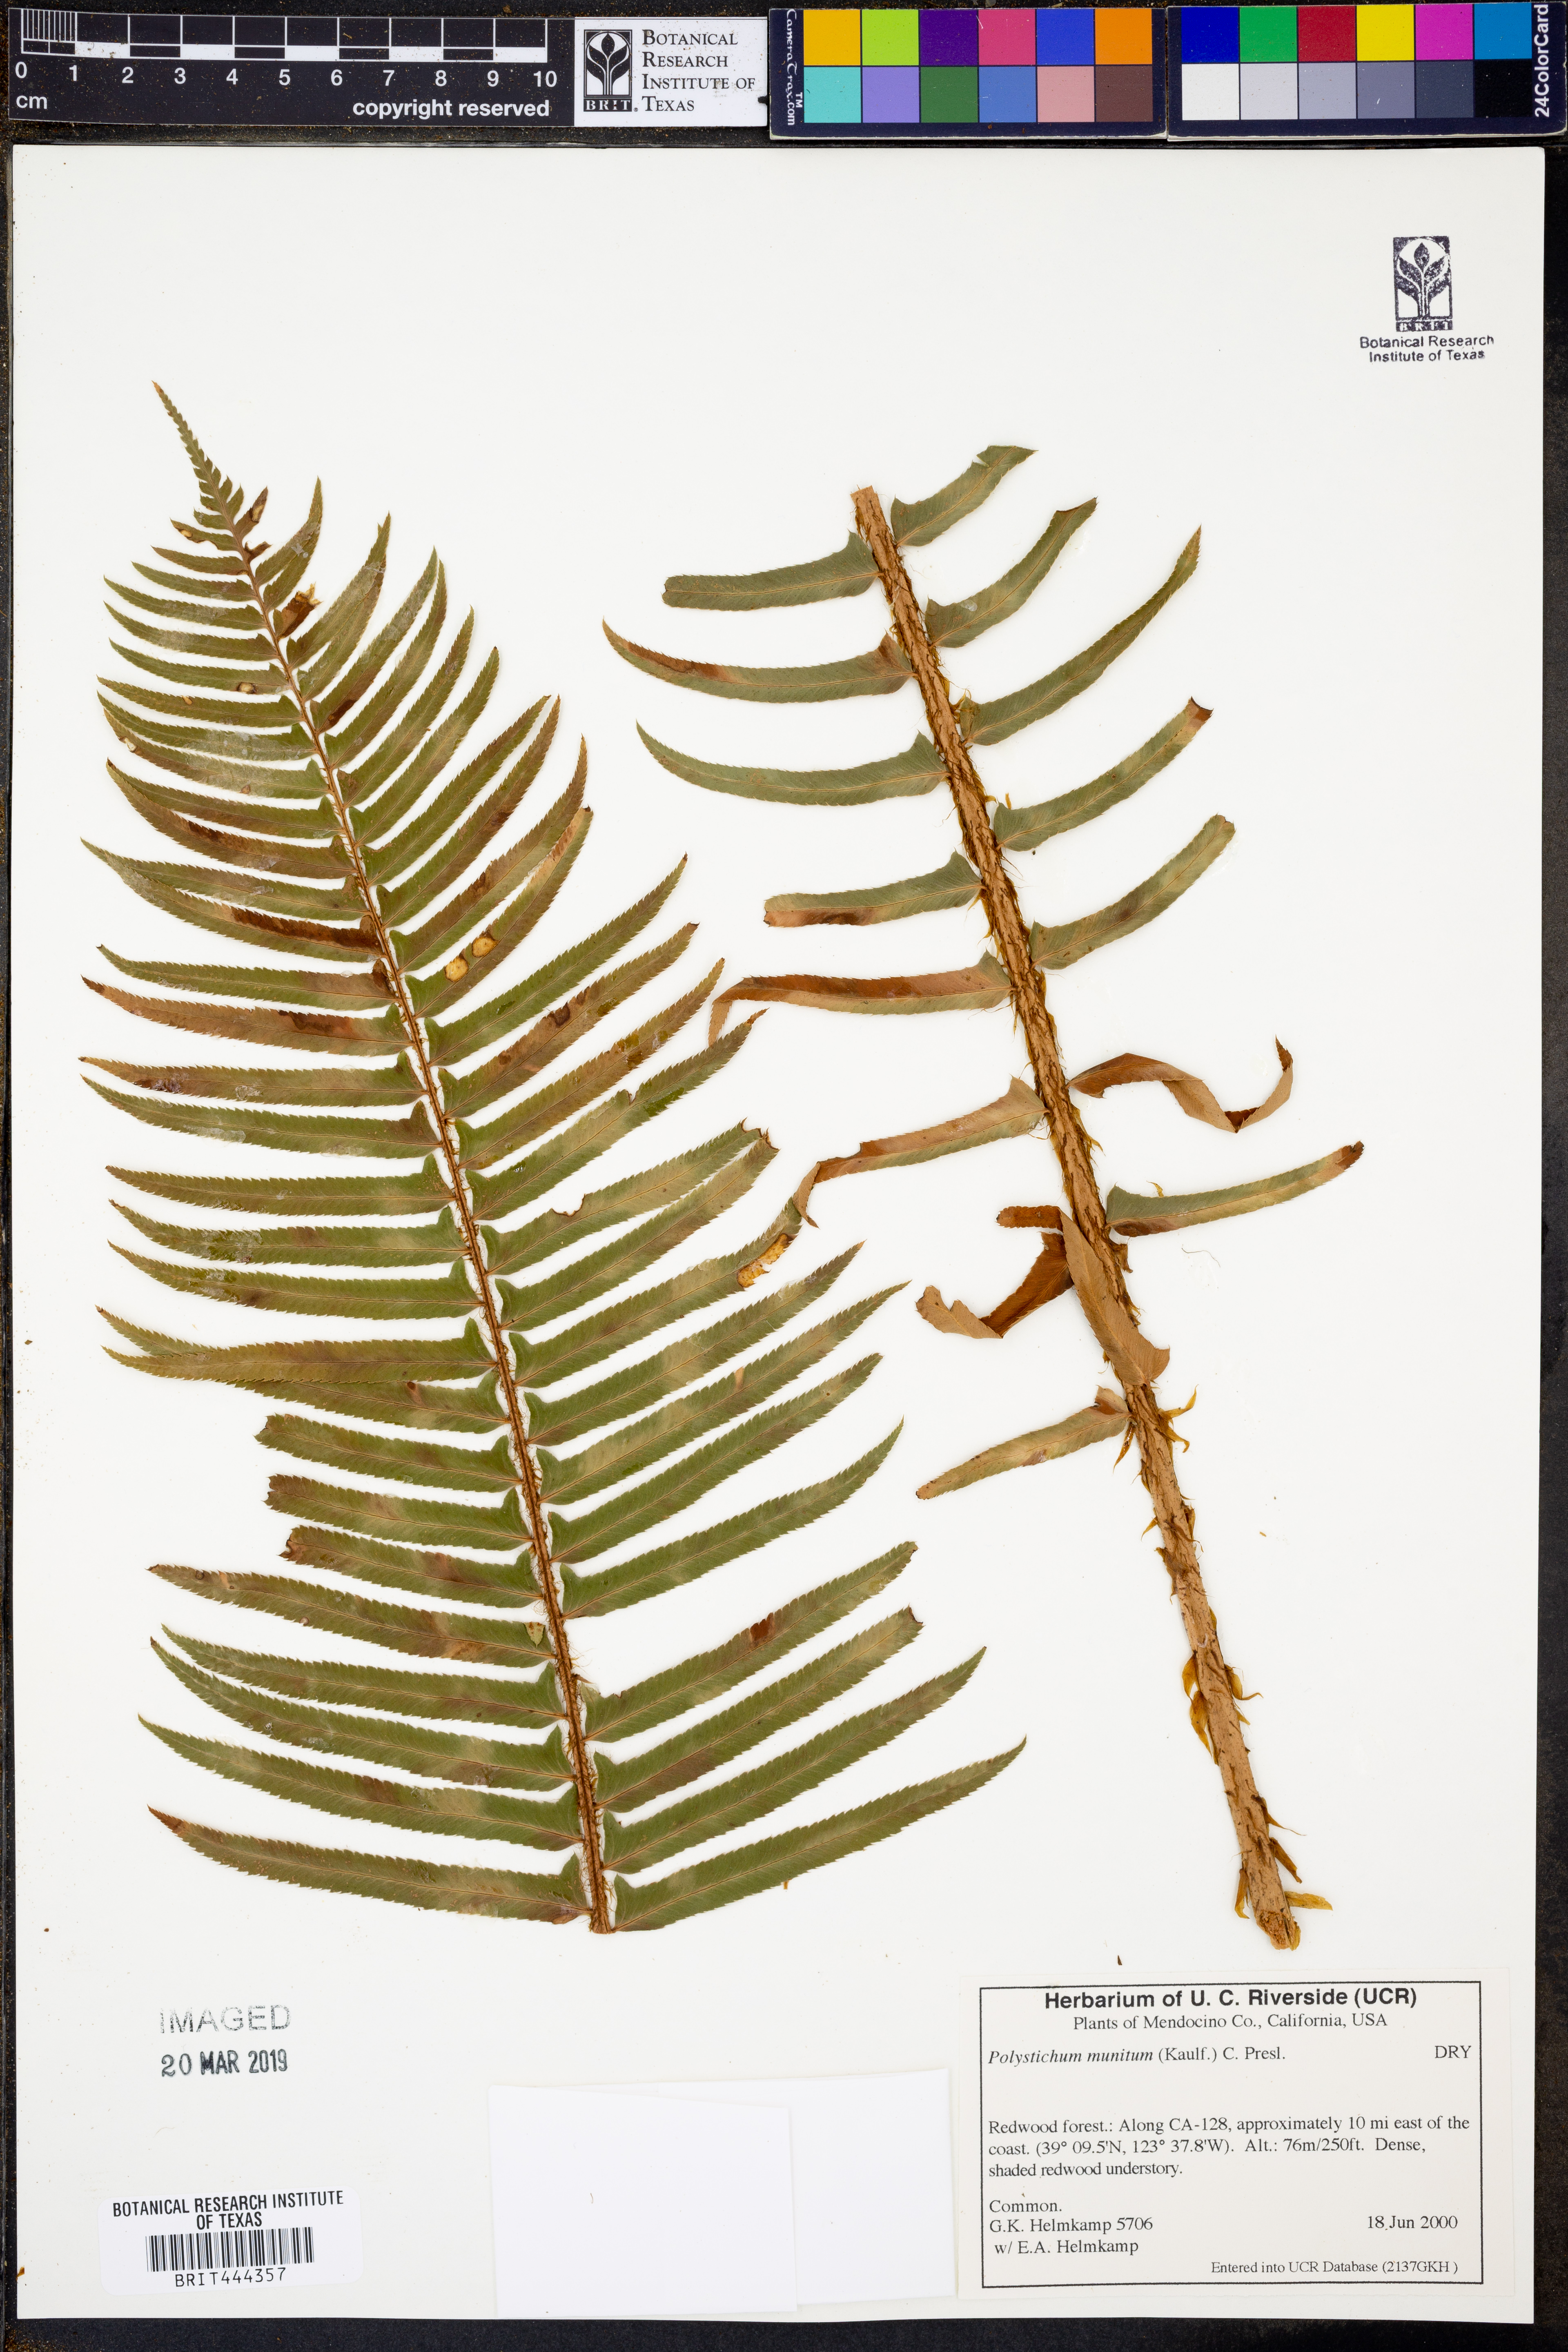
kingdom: Plantae
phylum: Tracheophyta
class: Polypodiopsida
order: Polypodiales
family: Dryopteridaceae
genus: Polystichum
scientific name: Polystichum munitum
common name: Western sword-fern
